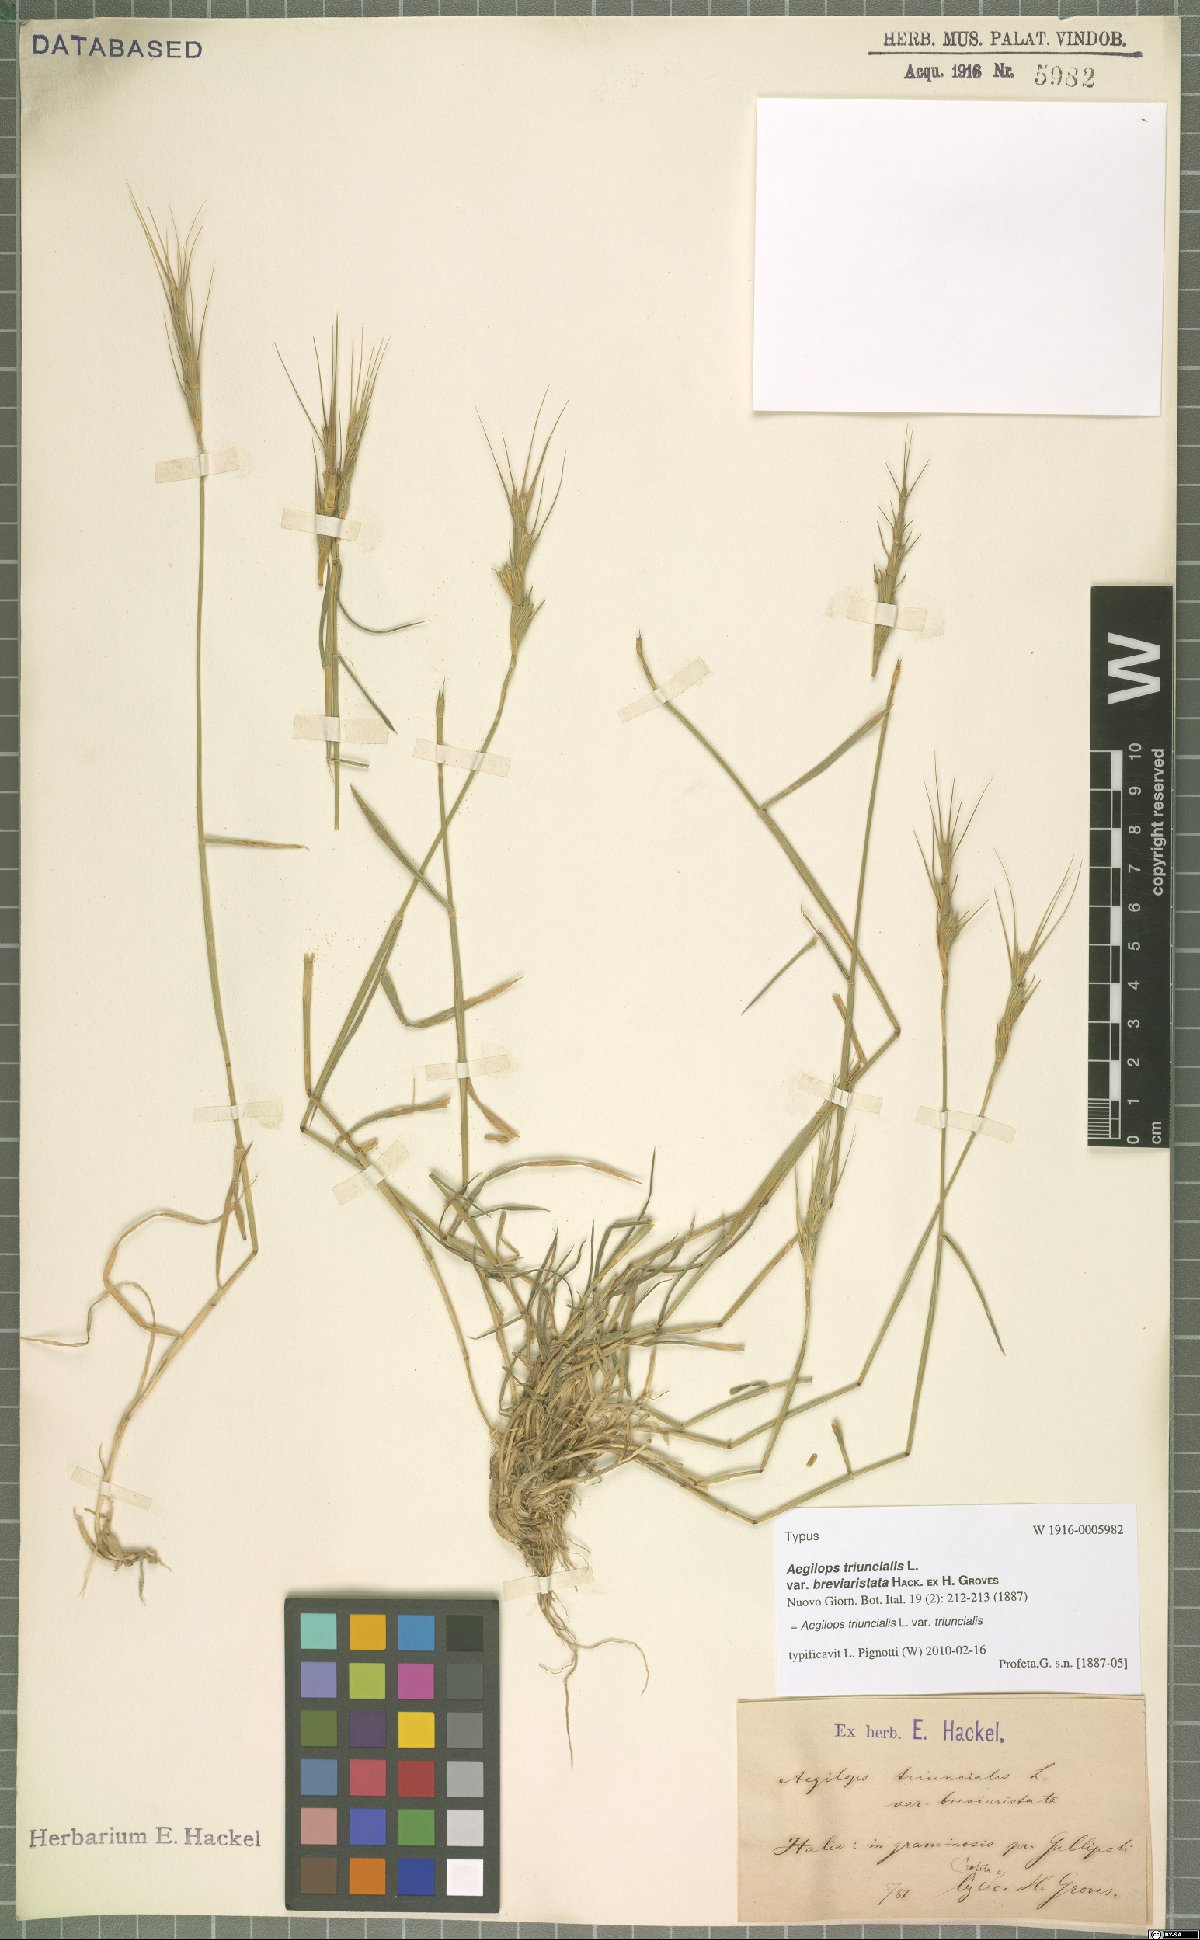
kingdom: Plantae
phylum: Tracheophyta
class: Liliopsida
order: Poales
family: Poaceae
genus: Aegilops
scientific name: Aegilops triuncialis
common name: Barb goat grass
